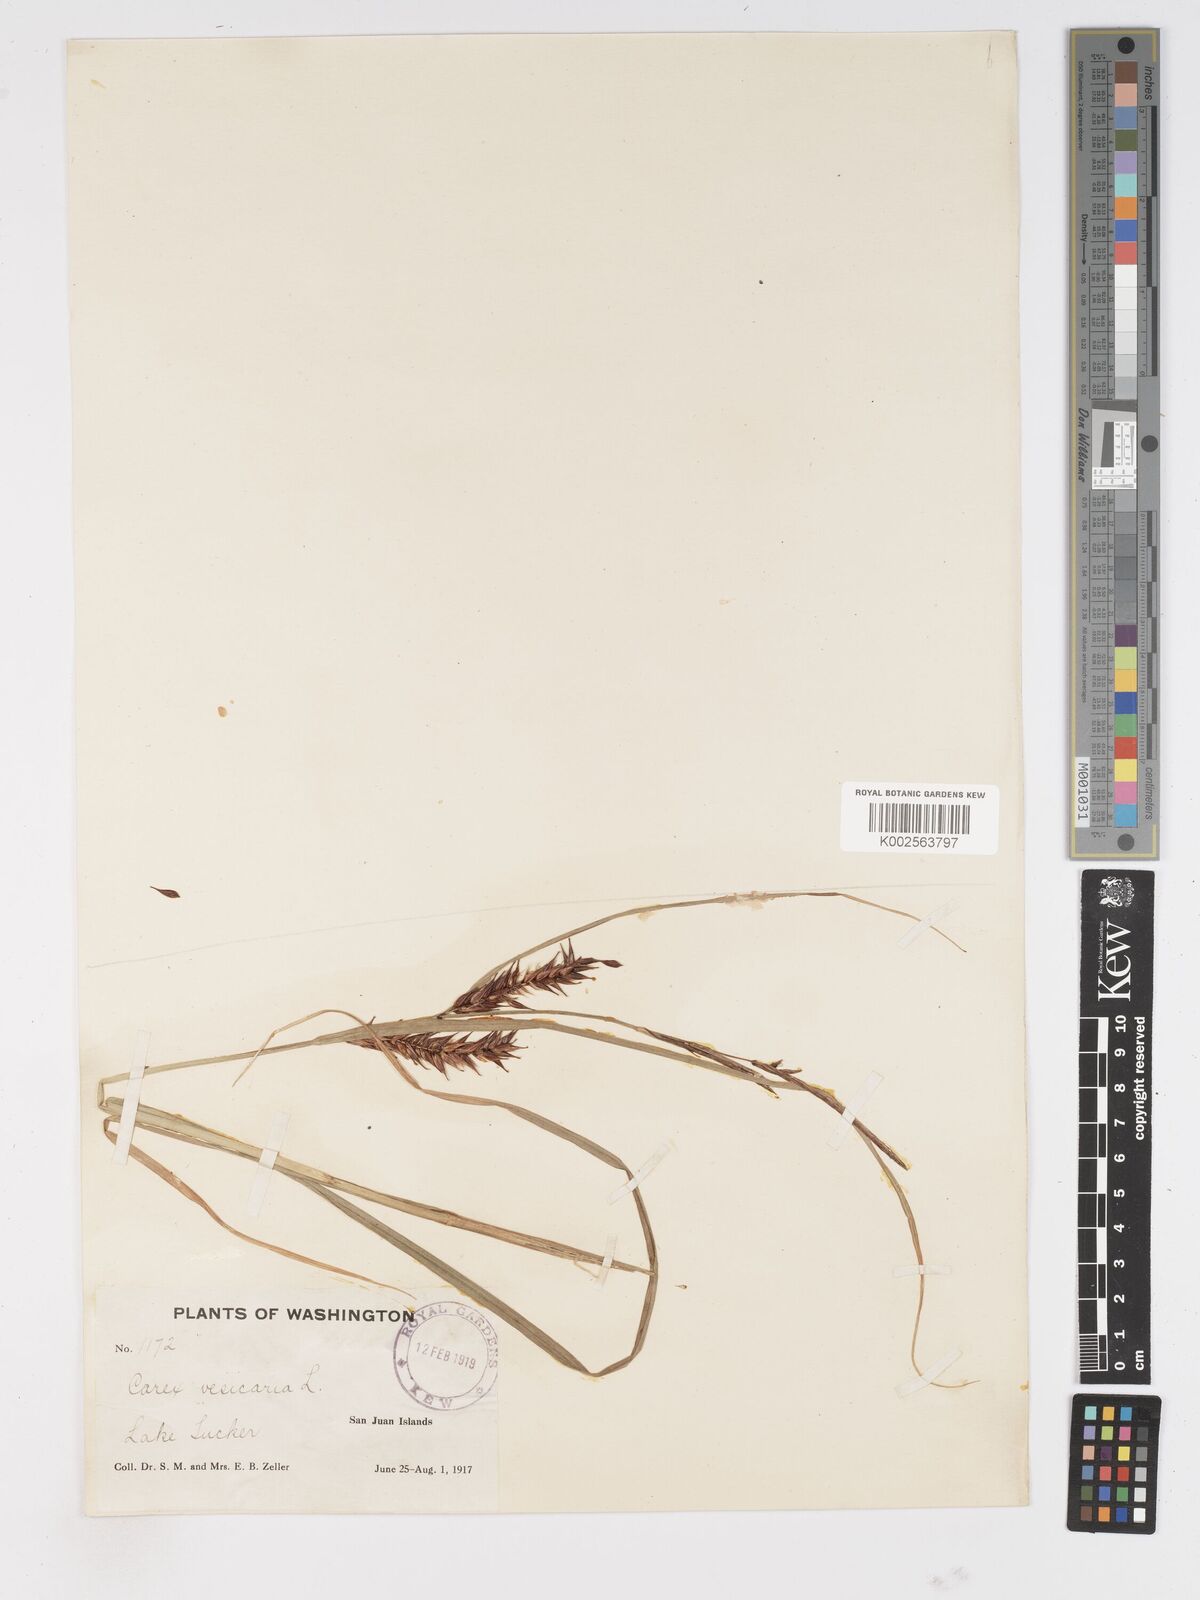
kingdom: Plantae
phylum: Tracheophyta
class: Liliopsida
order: Poales
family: Cyperaceae
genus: Carex
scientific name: Carex vesicaria
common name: Bladder-sedge
